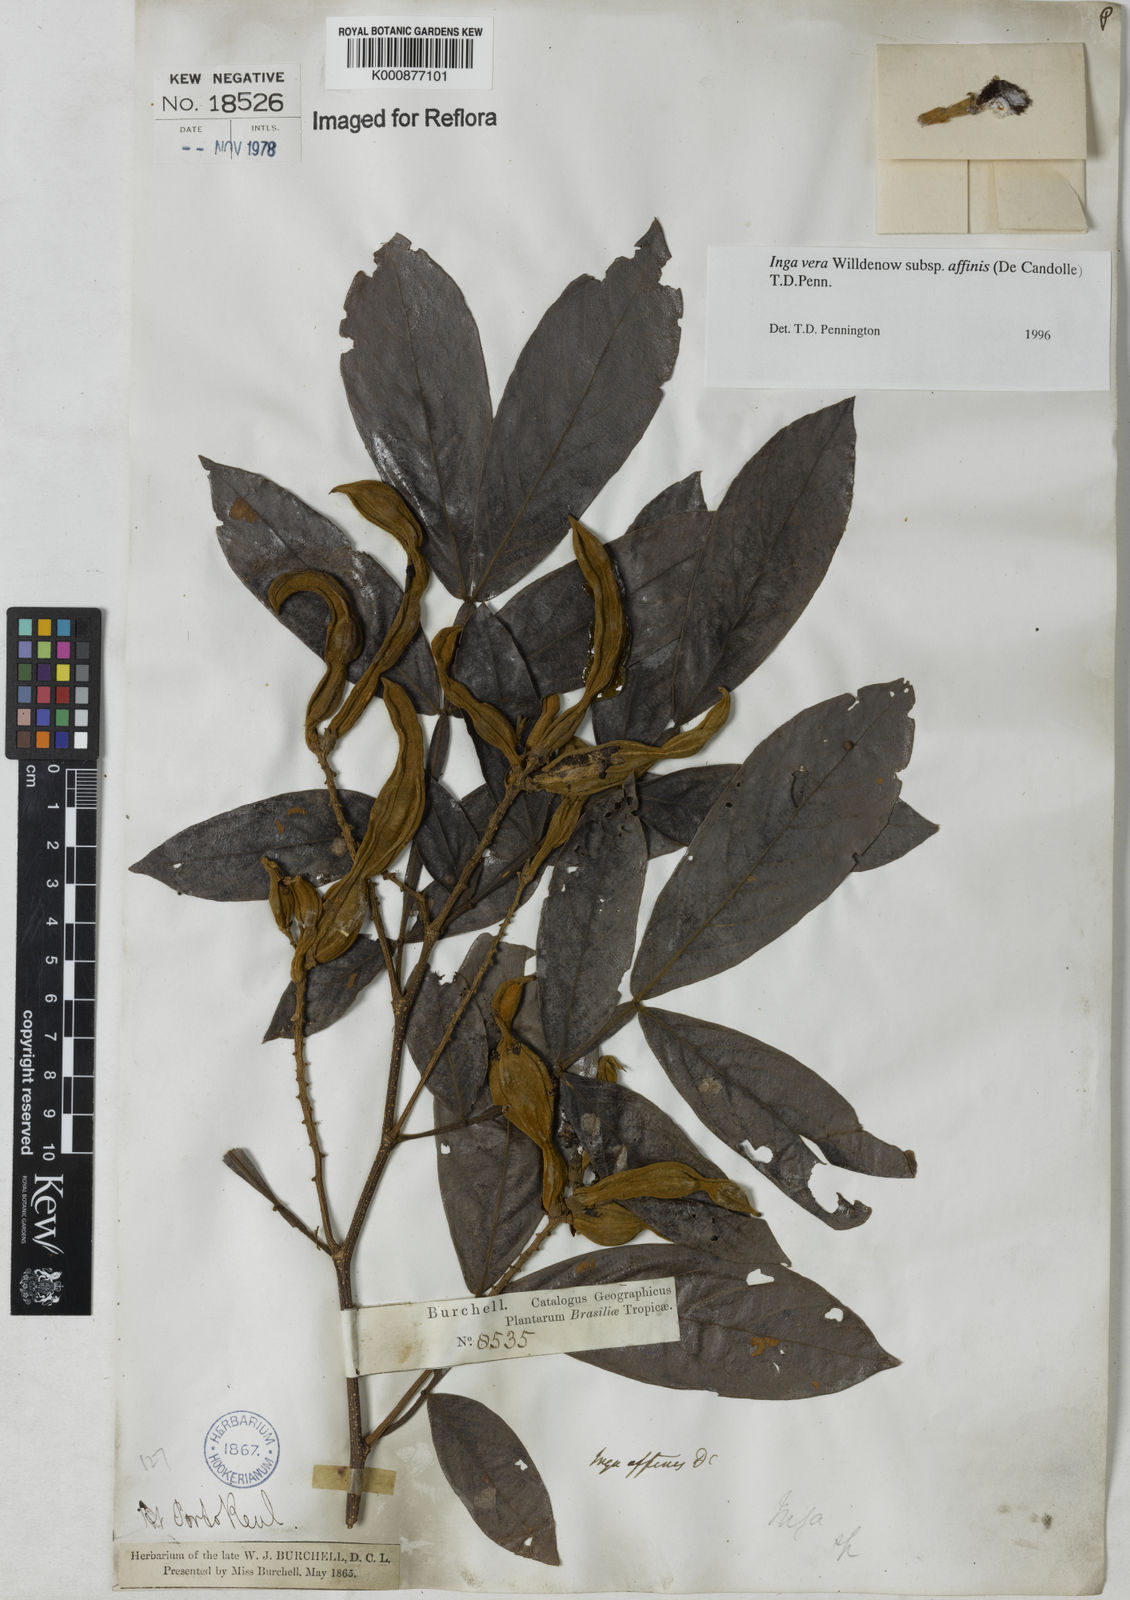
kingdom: Plantae
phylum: Tracheophyta
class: Magnoliopsida
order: Fabales
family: Fabaceae
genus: Inga
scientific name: Inga affinis
